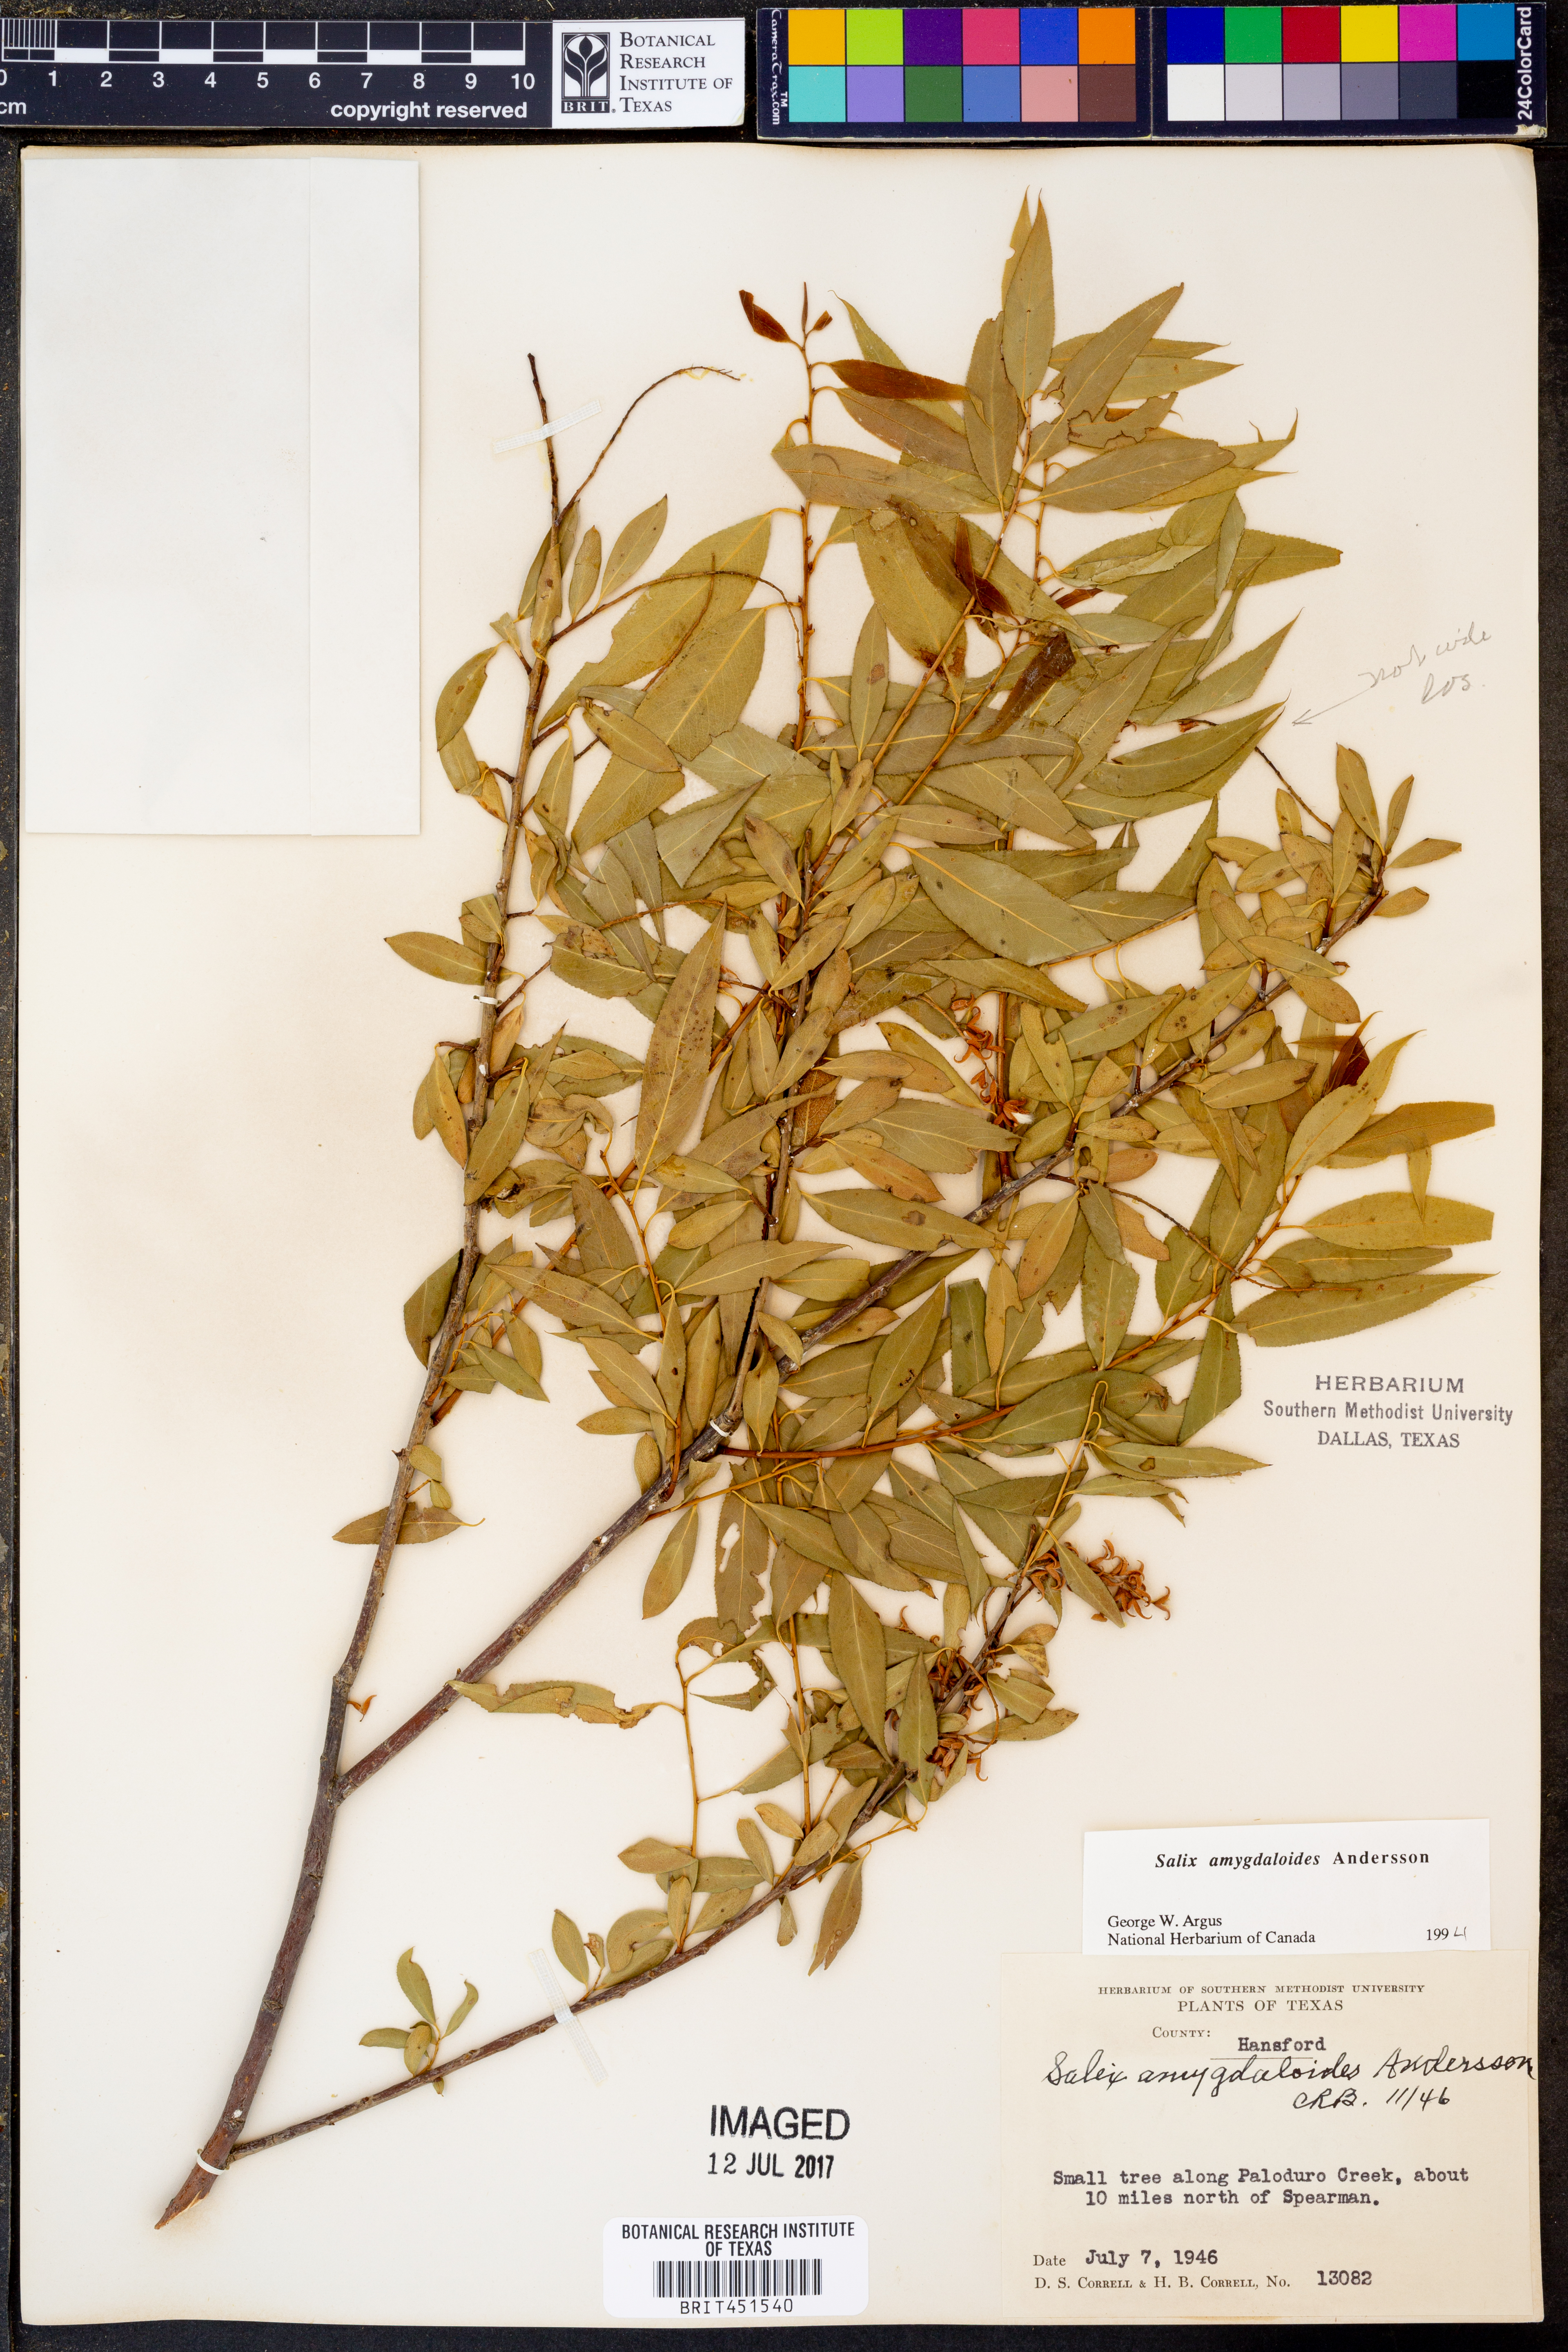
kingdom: Plantae
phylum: Tracheophyta
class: Magnoliopsida
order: Malpighiales
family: Salicaceae
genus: Salix
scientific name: Salix amygdaloides
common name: Peach leaf willow
